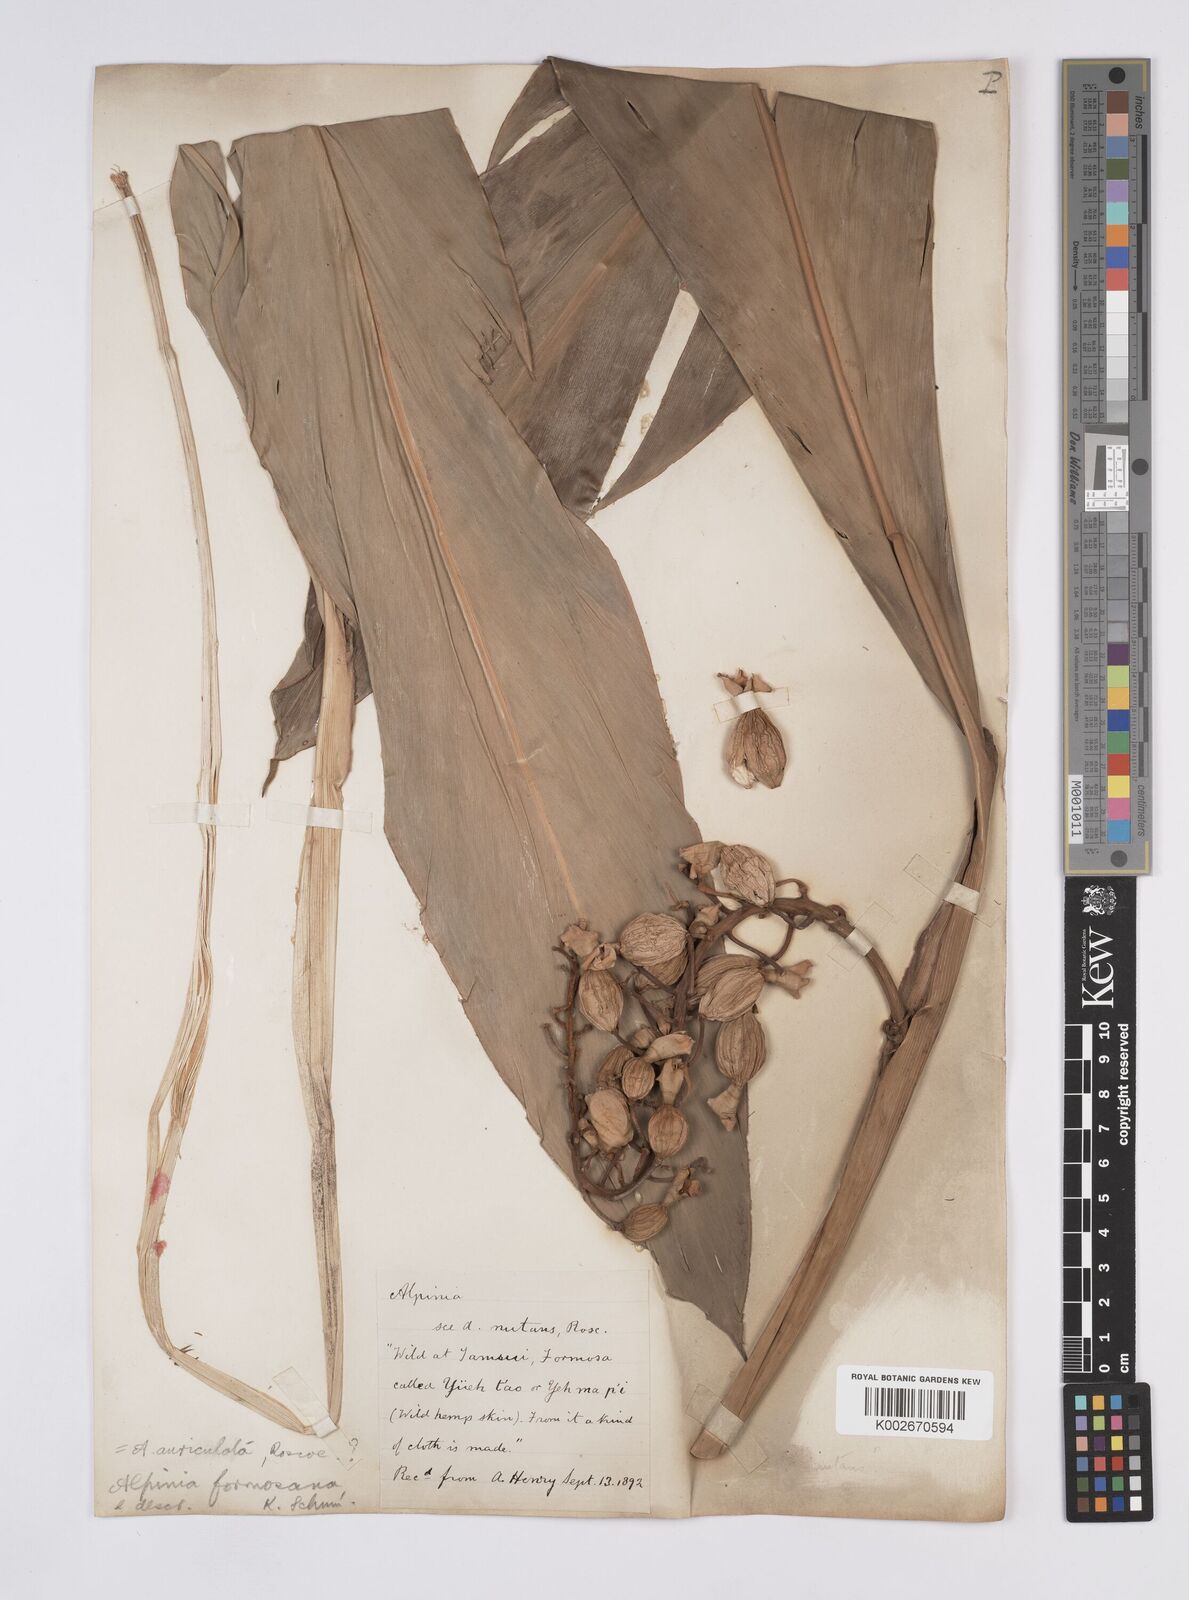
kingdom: Plantae
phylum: Tracheophyta
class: Liliopsida
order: Zingiberales
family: Zingiberaceae
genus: Alpinia
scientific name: Alpinia formosana
